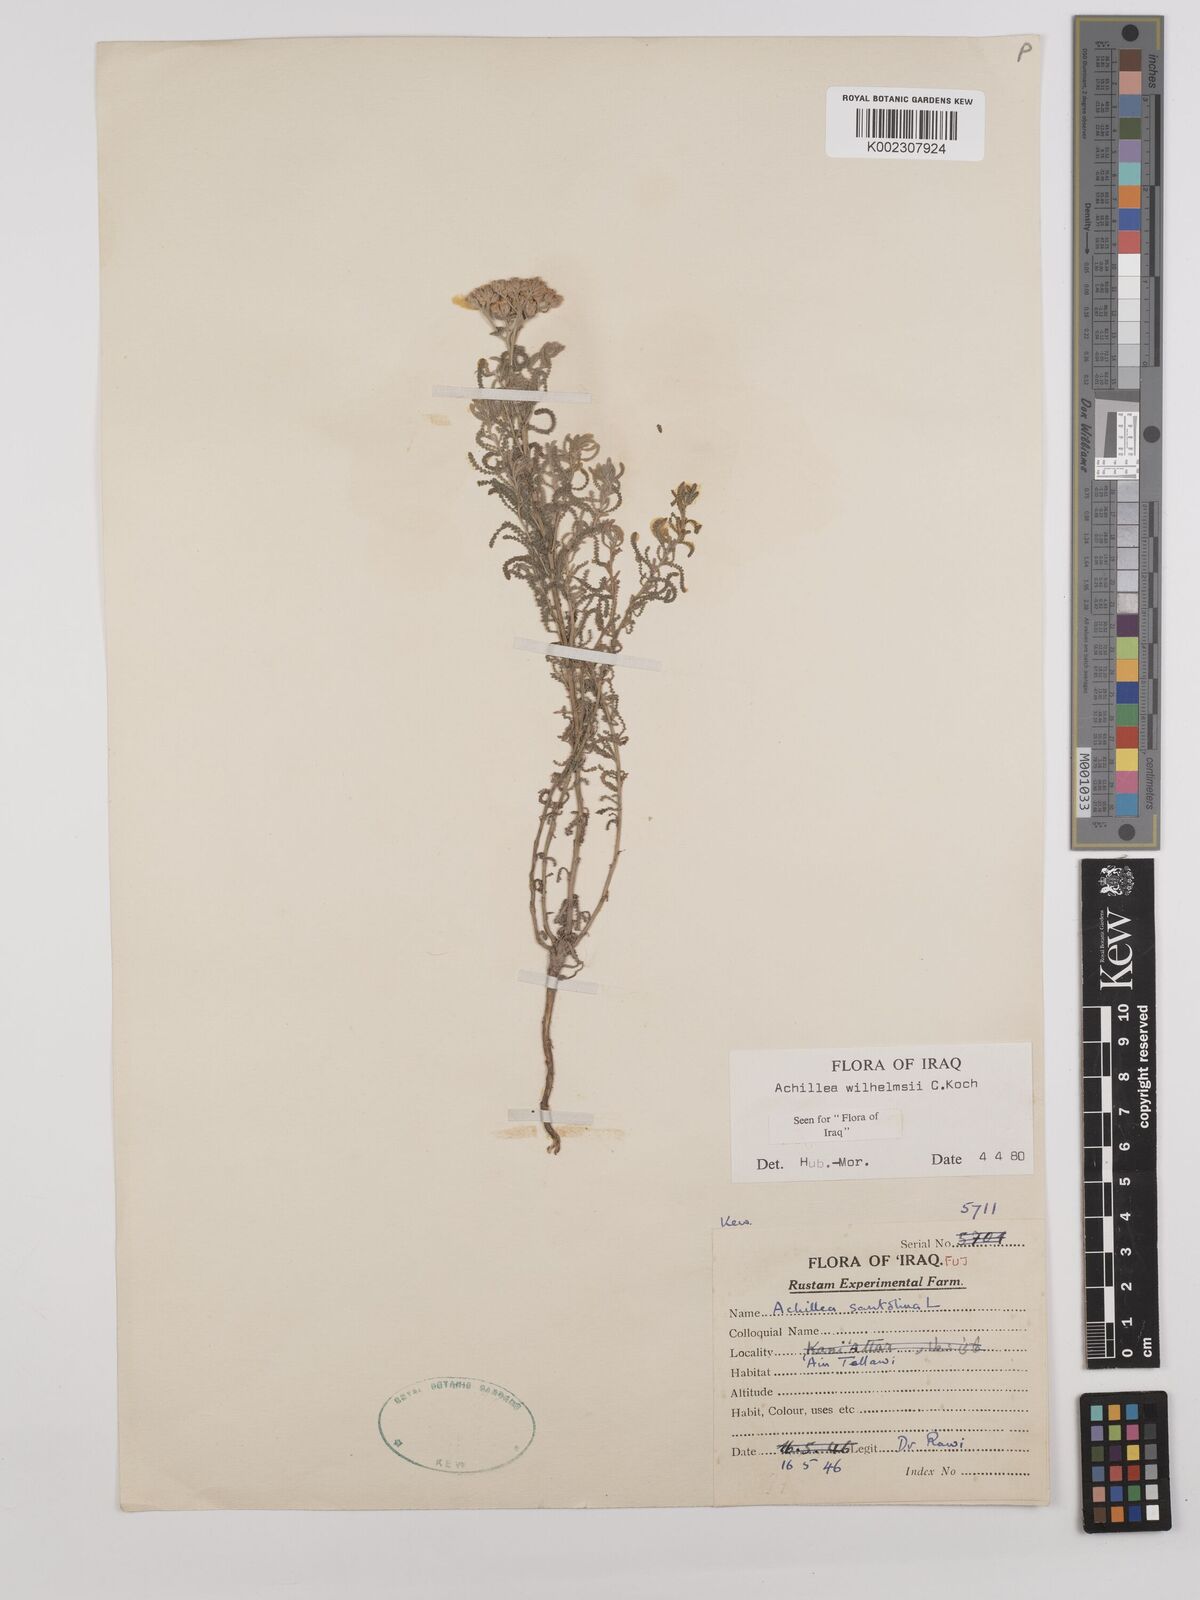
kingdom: Plantae
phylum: Tracheophyta
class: Magnoliopsida
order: Asterales
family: Asteraceae
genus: Achillea
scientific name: Achillea wilhelmsii
